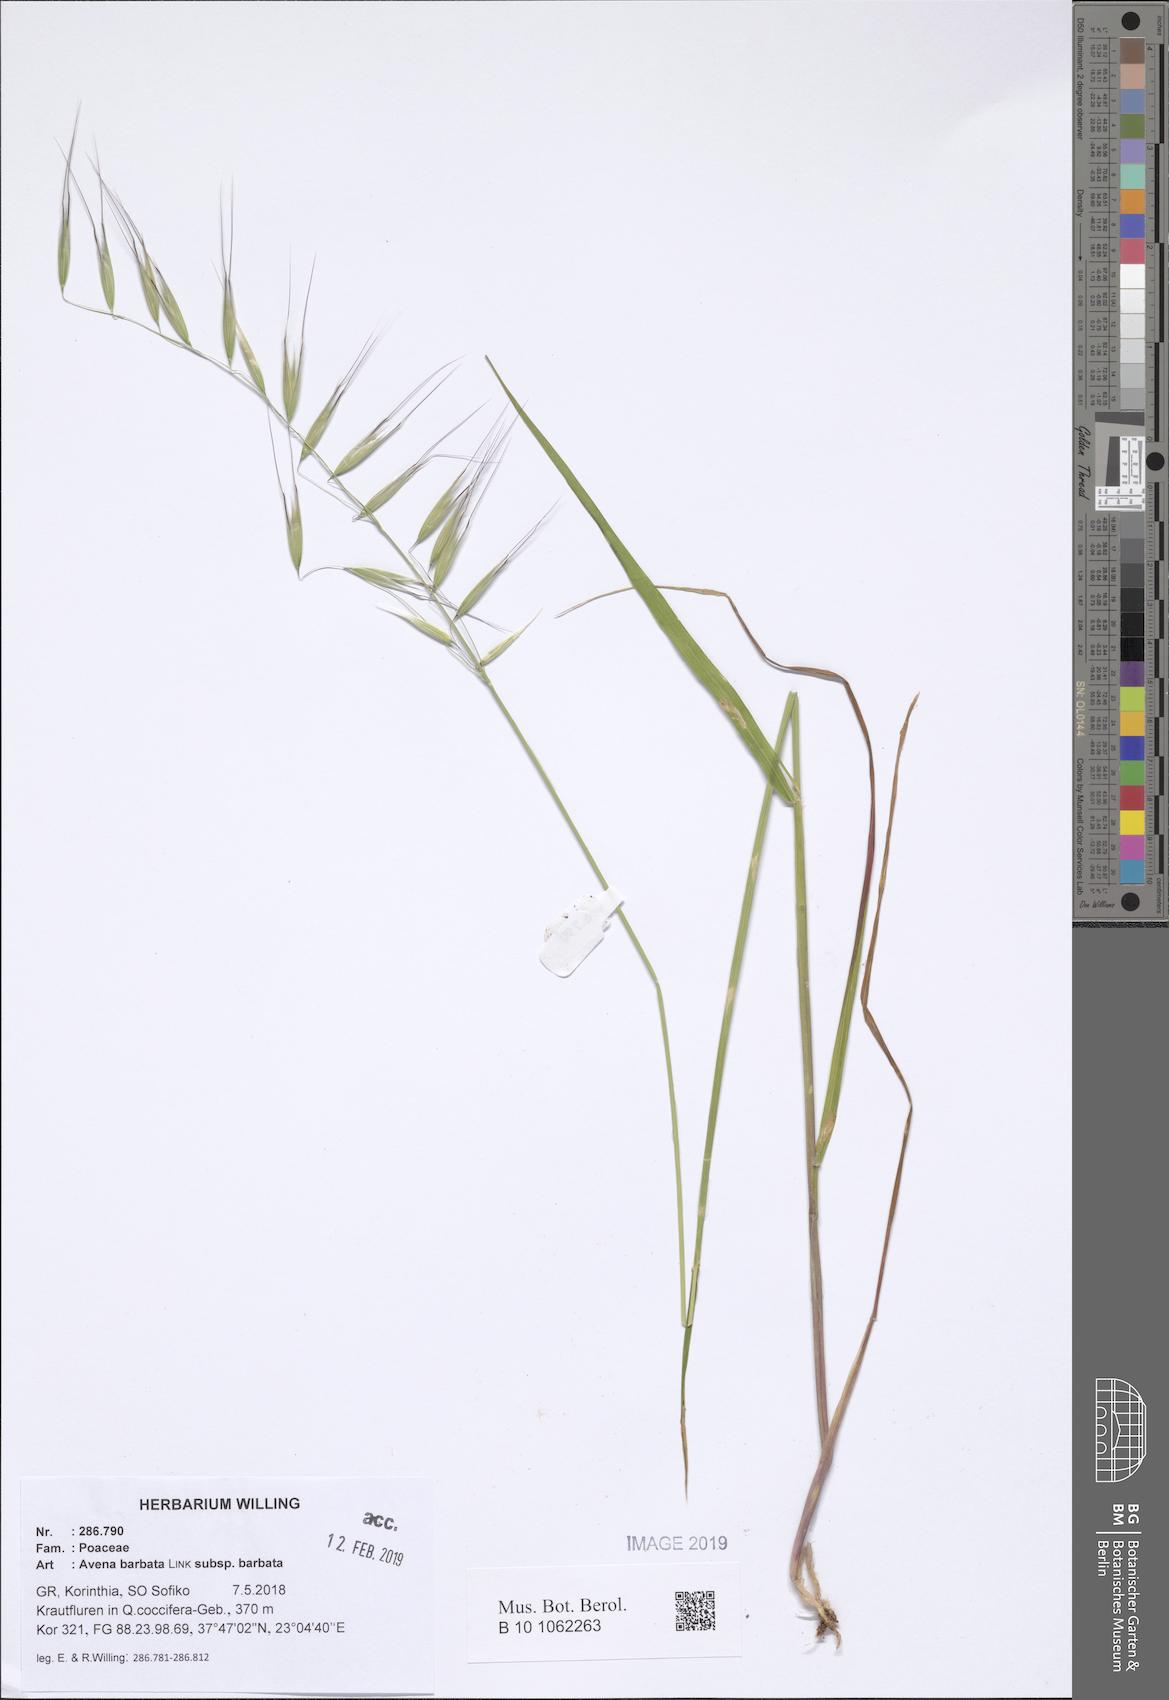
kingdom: Plantae
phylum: Tracheophyta
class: Liliopsida
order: Poales
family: Poaceae
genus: Avena
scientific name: Avena barbata
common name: Slender oat
